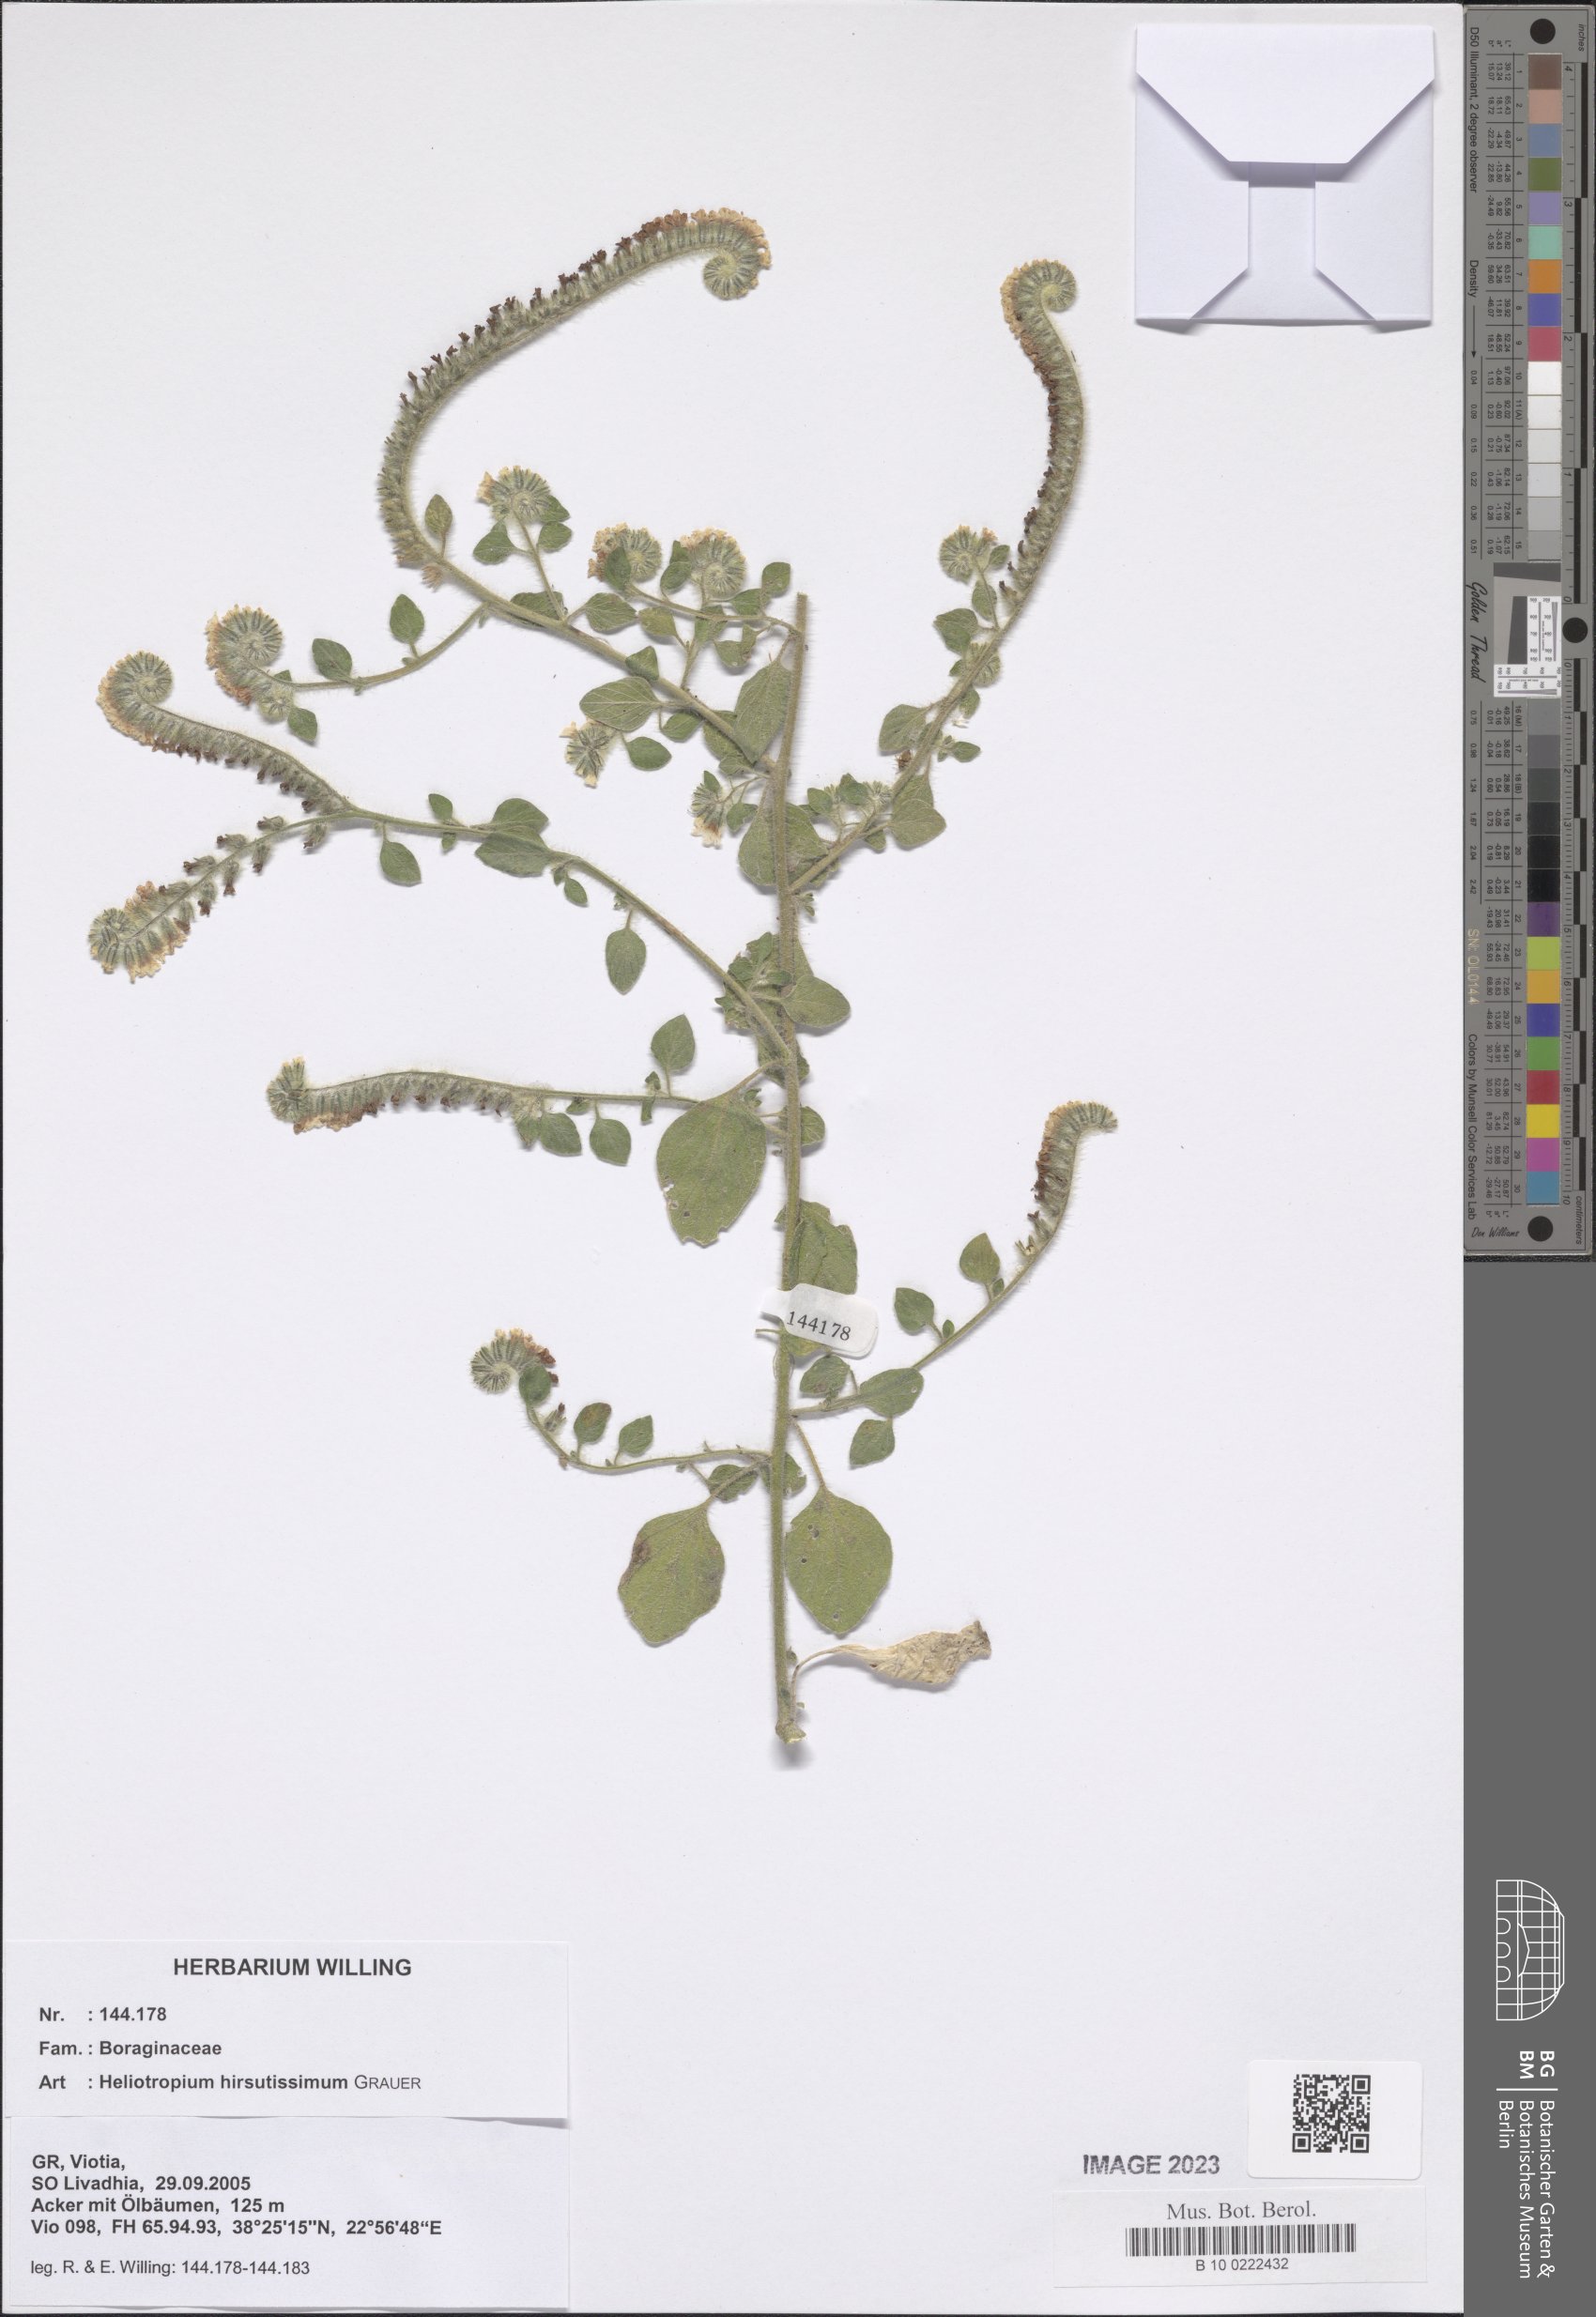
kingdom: Plantae
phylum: Tracheophyta
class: Magnoliopsida
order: Boraginales
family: Heliotropiaceae
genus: Heliotropium
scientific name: Heliotropium hirsutissimum
